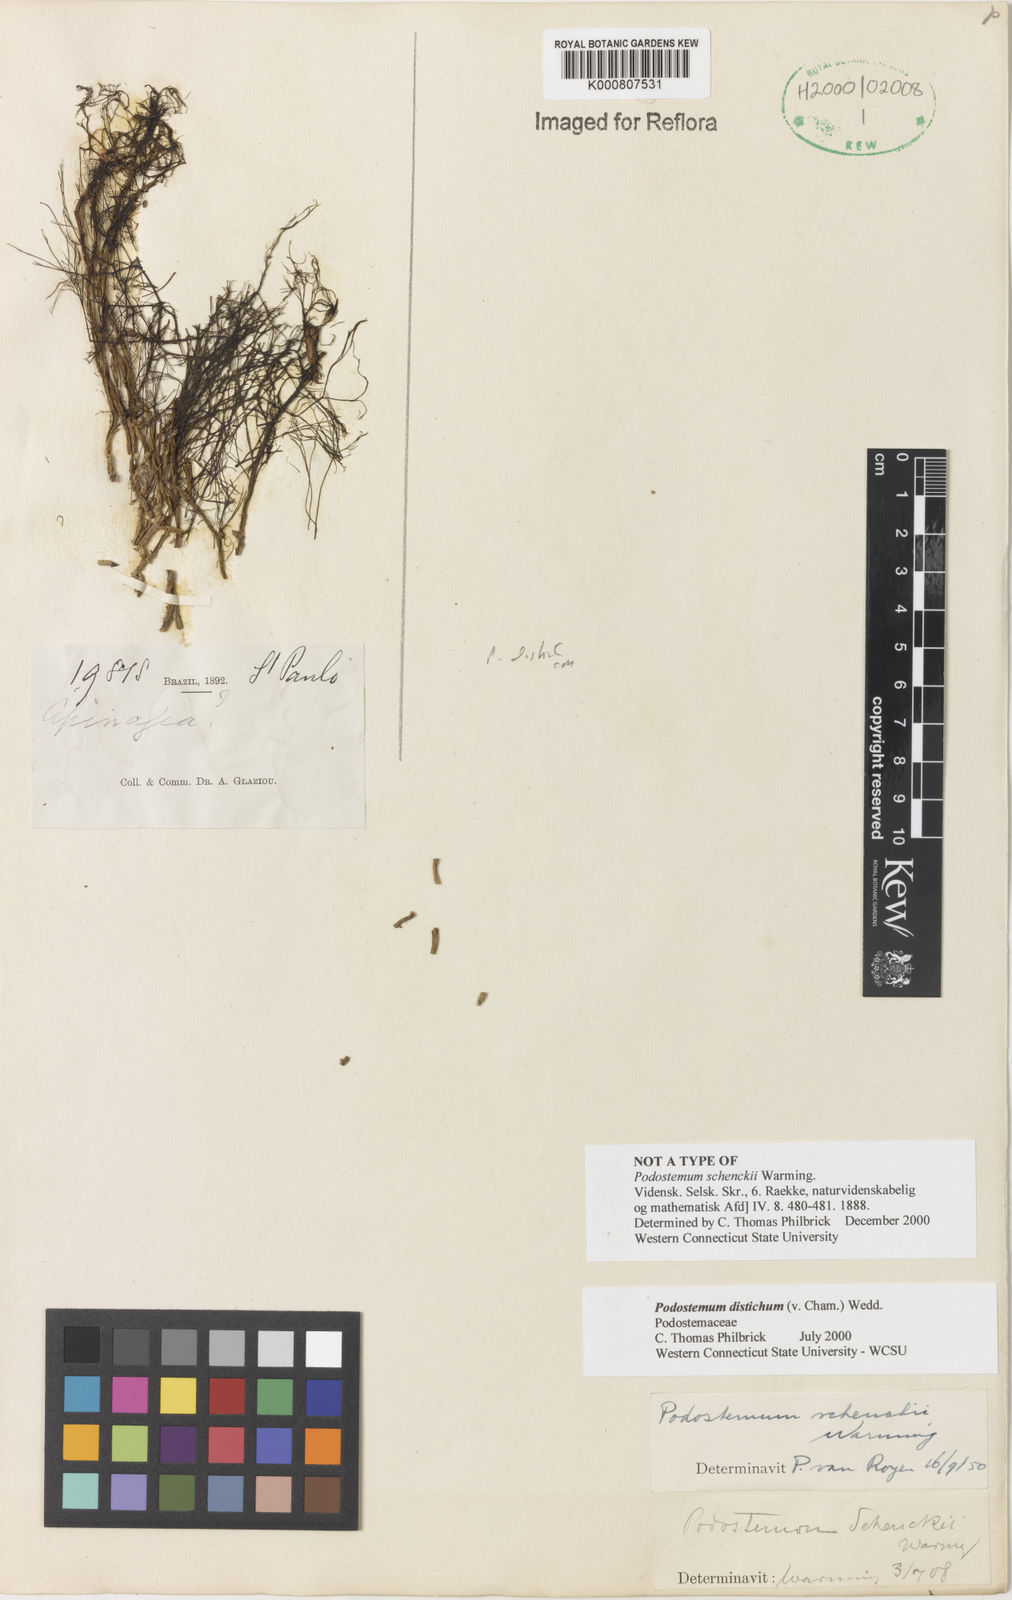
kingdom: Plantae
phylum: Tracheophyta
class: Magnoliopsida
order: Malpighiales
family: Podostemaceae
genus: Podostemum
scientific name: Podostemum distichum
